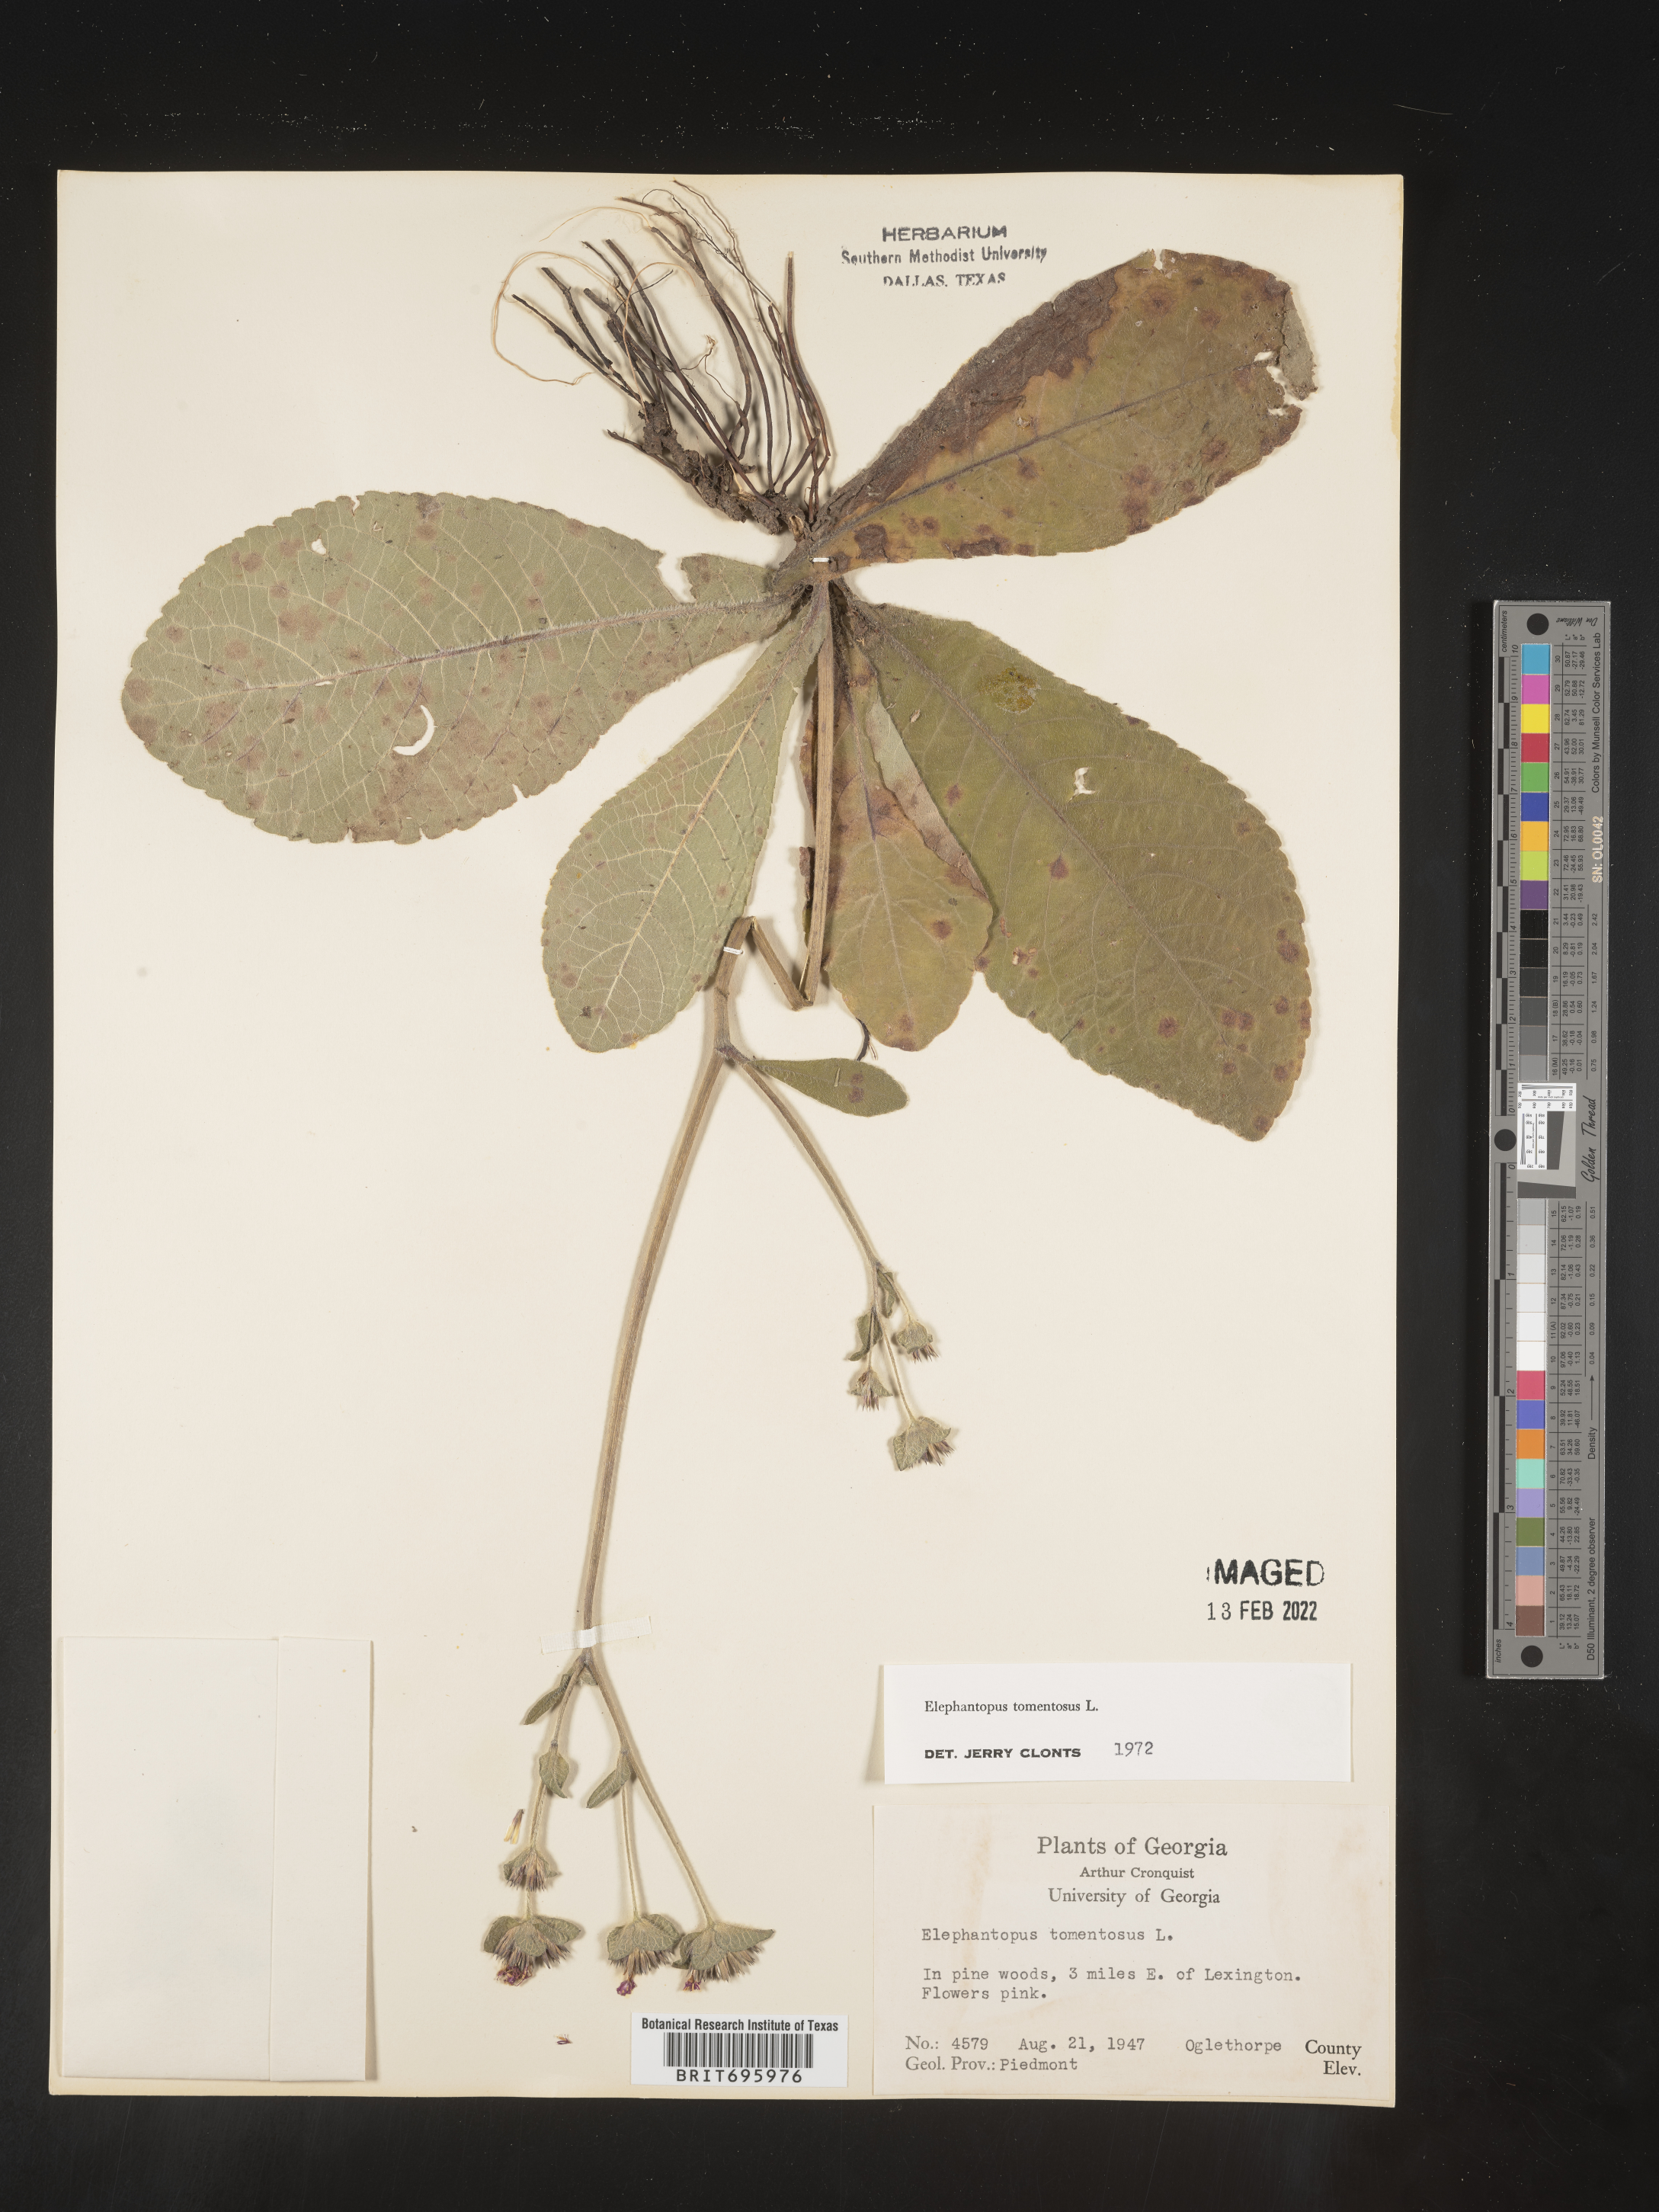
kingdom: Plantae
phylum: Tracheophyta
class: Magnoliopsida
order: Asterales
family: Asteraceae
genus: Elephantopus
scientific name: Elephantopus tomentosus
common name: Tobacco-weed
